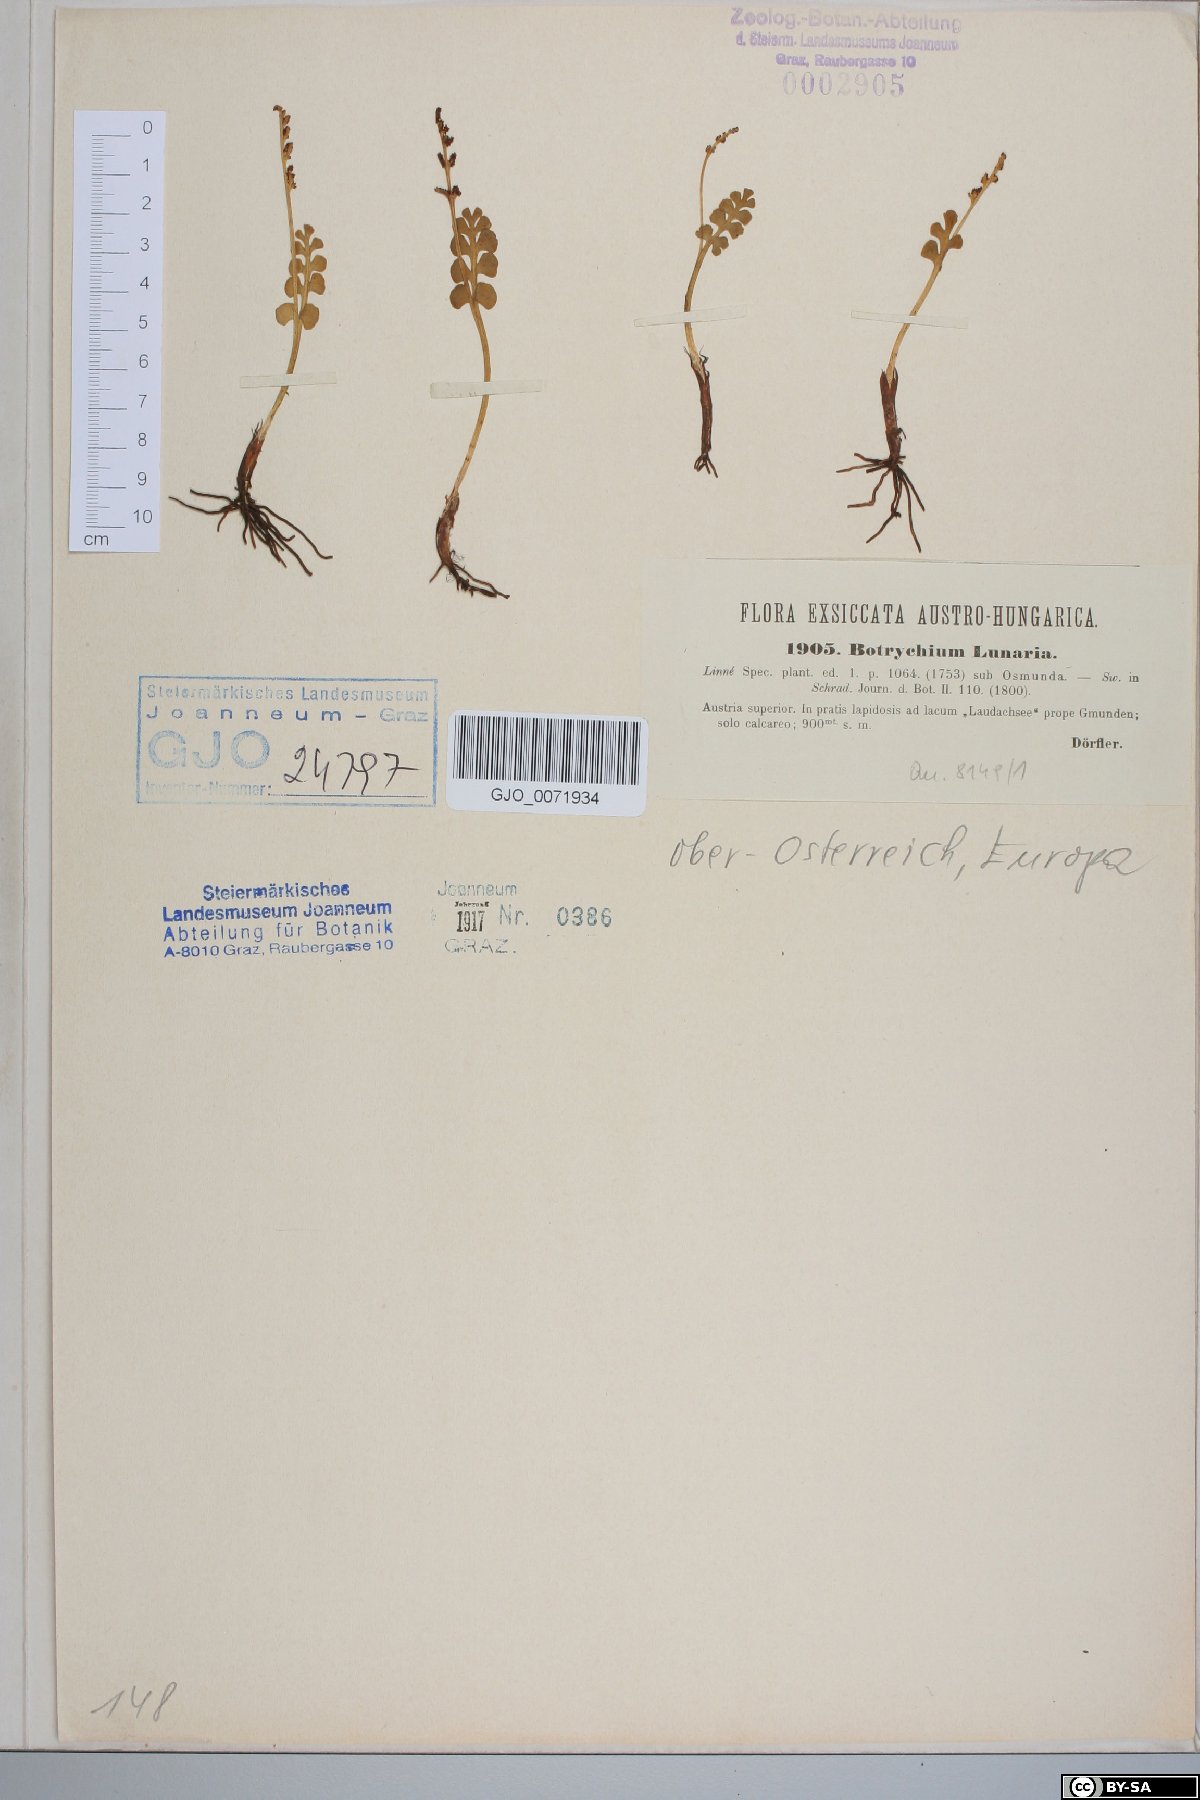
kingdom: Plantae
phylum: Tracheophyta
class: Polypodiopsida
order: Ophioglossales
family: Ophioglossaceae
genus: Botrychium
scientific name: Botrychium lunaria
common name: Moonwort
